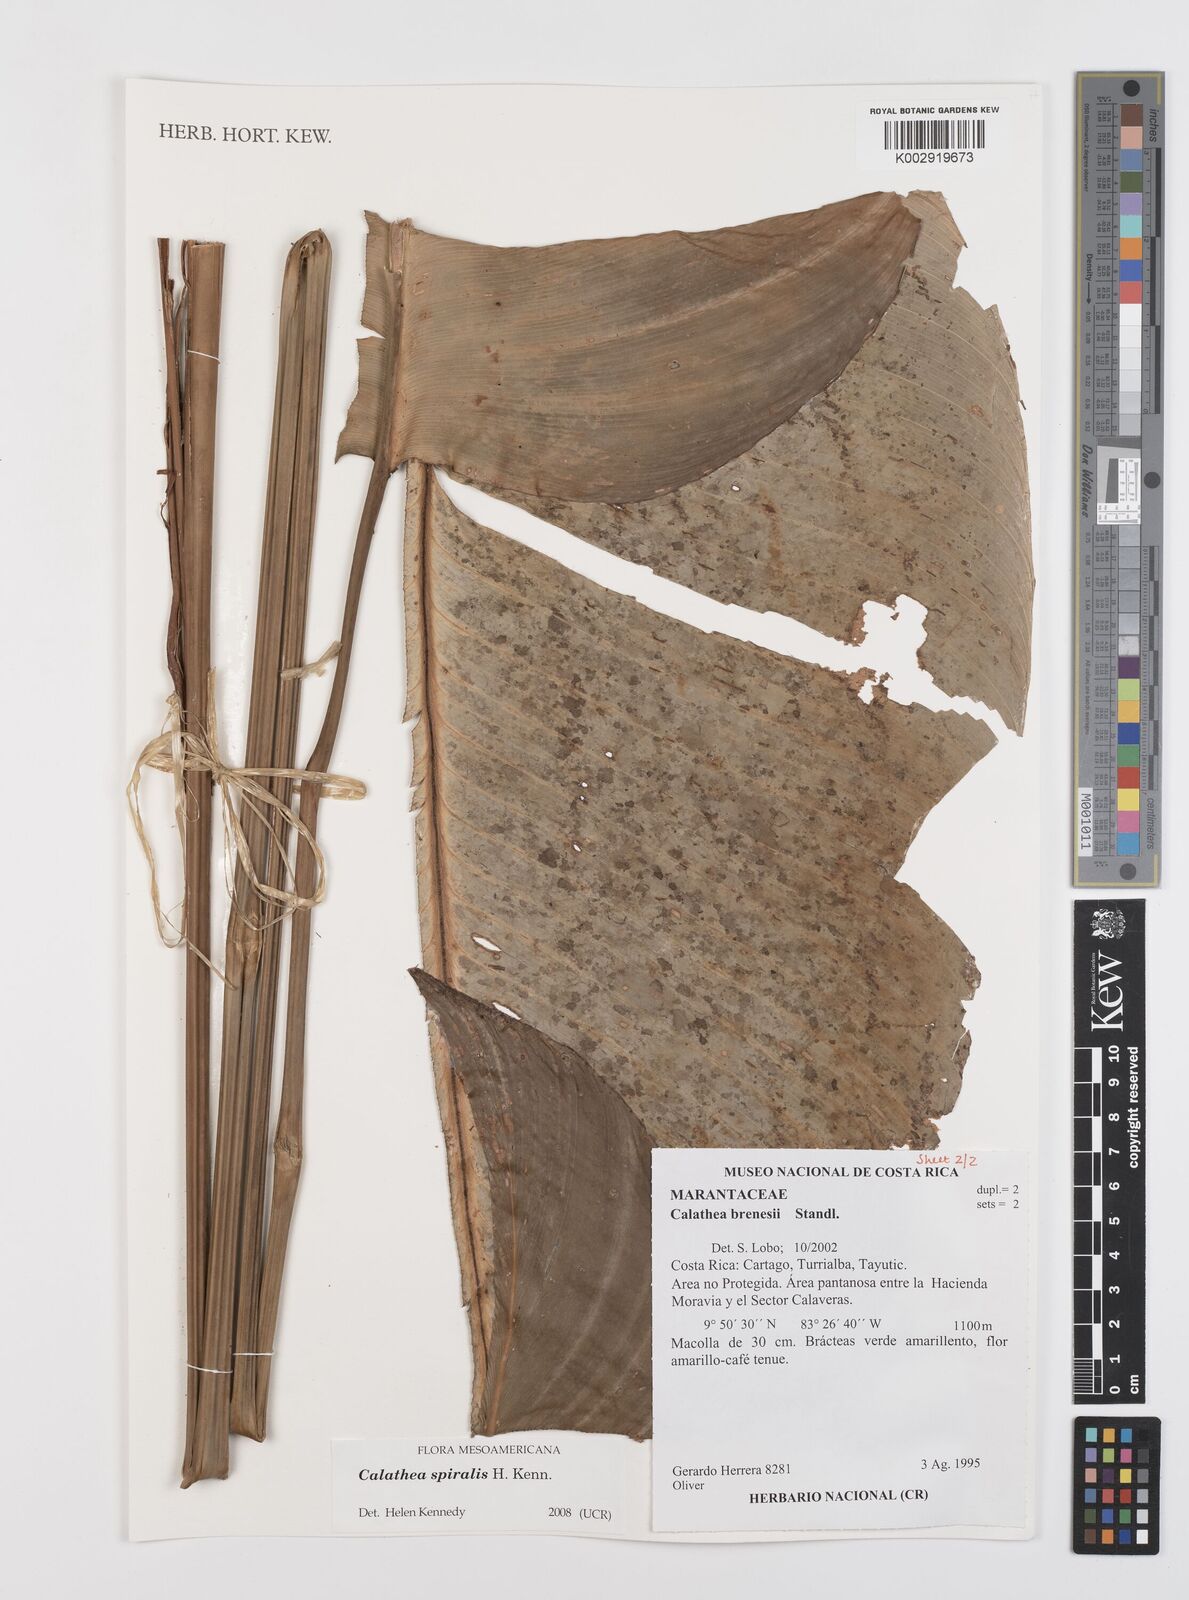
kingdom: Plantae
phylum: Tracheophyta
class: Liliopsida
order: Zingiberales
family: Marantaceae
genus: Calathea
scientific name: Calathea spiralis
